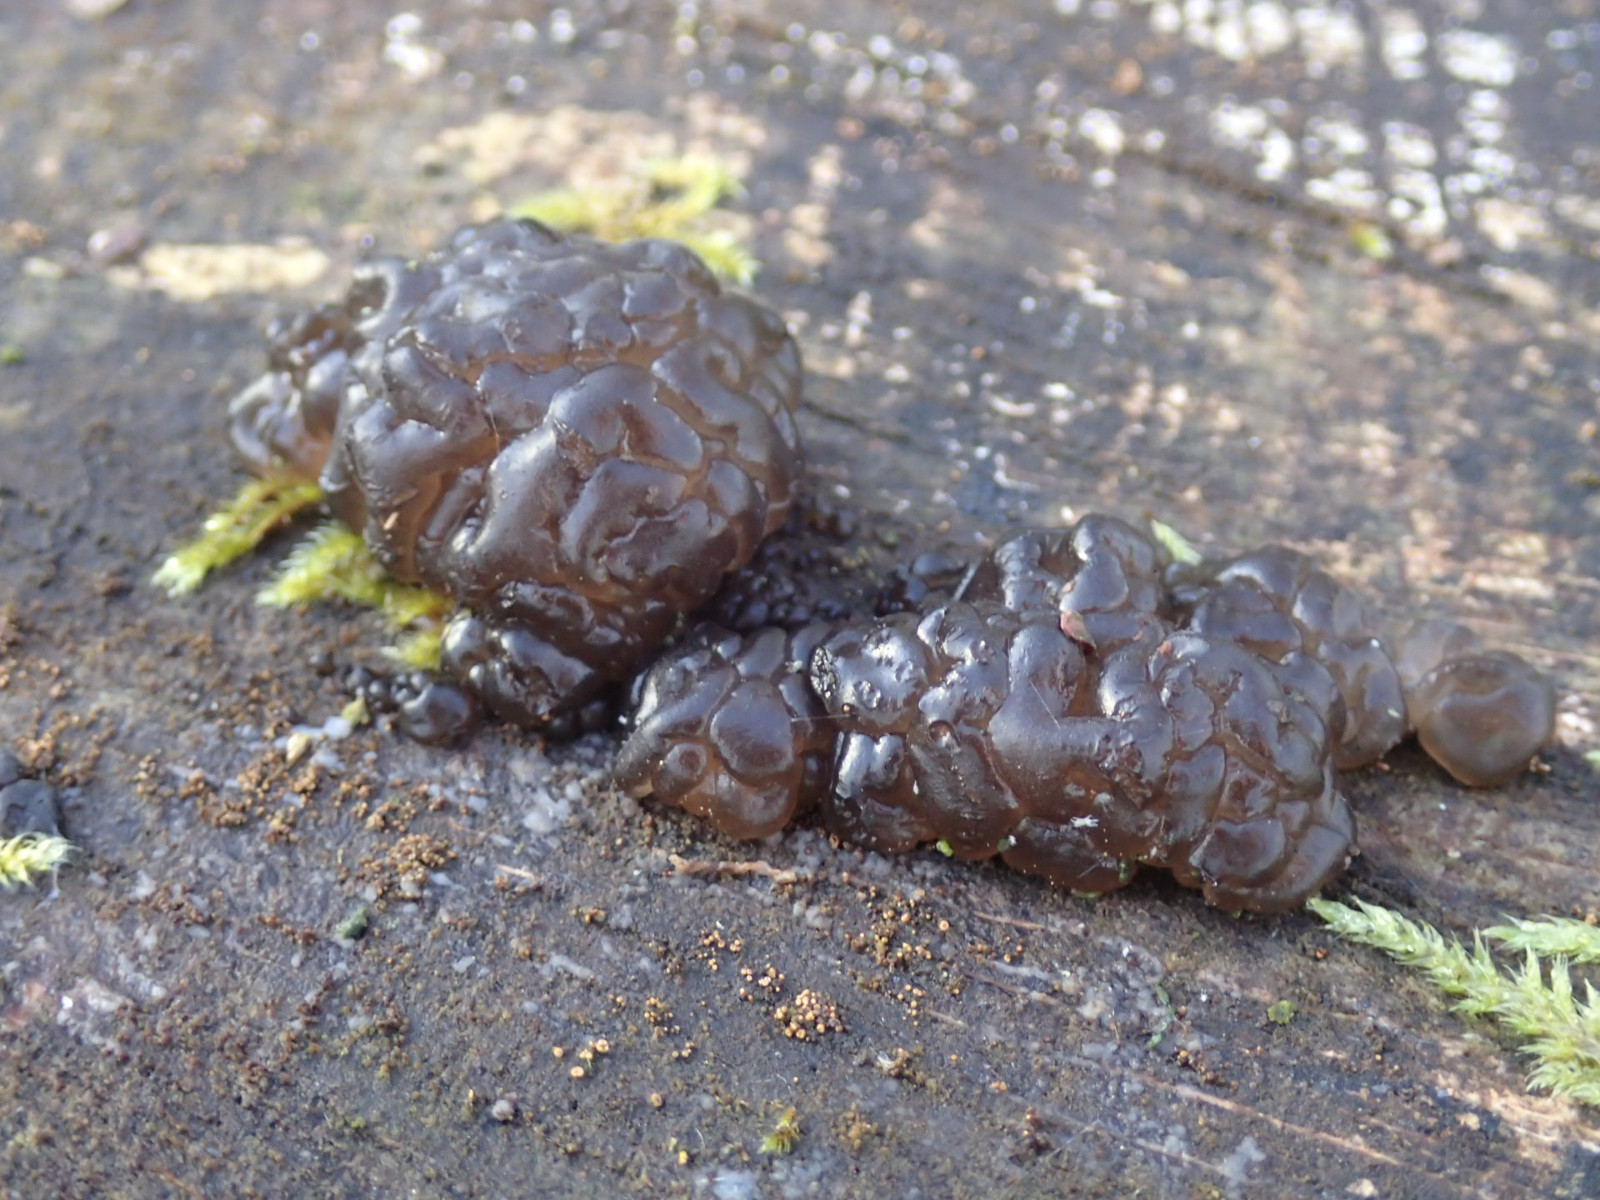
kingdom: Fungi
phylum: Basidiomycota
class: Agaricomycetes
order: Auriculariales
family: Auriculariaceae
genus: Exidia
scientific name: Exidia nigricans
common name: almindelig bævretop
